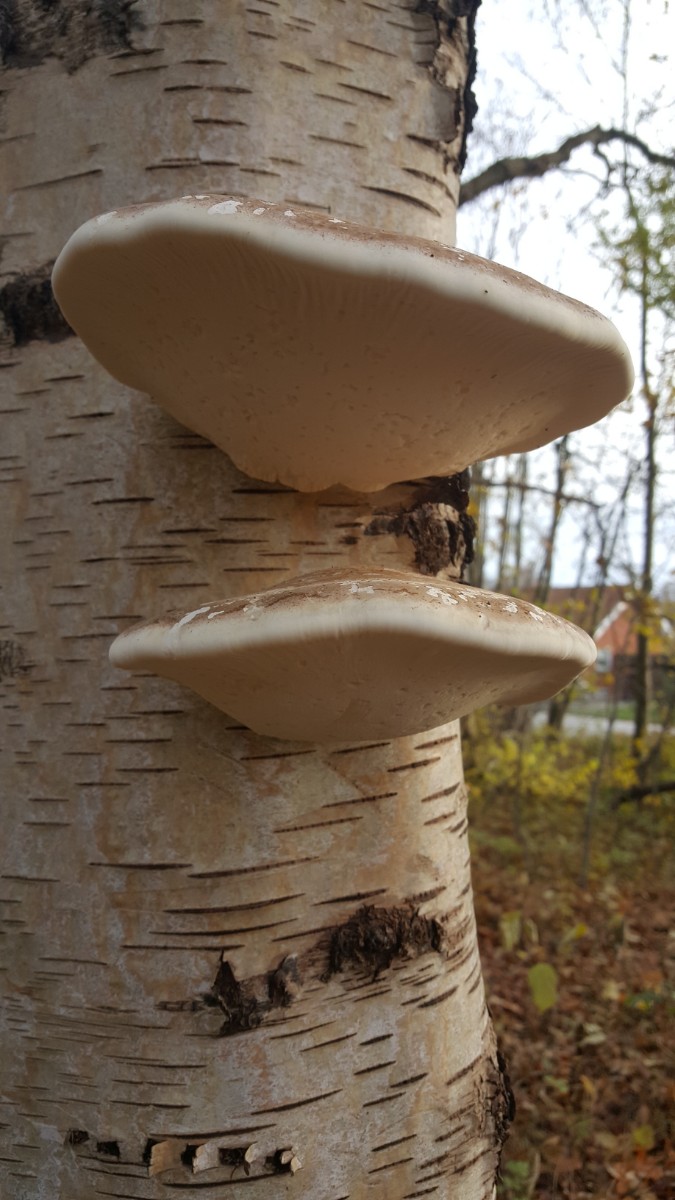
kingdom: Fungi
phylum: Basidiomycota
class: Agaricomycetes
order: Polyporales
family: Fomitopsidaceae
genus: Fomitopsis
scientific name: Fomitopsis
